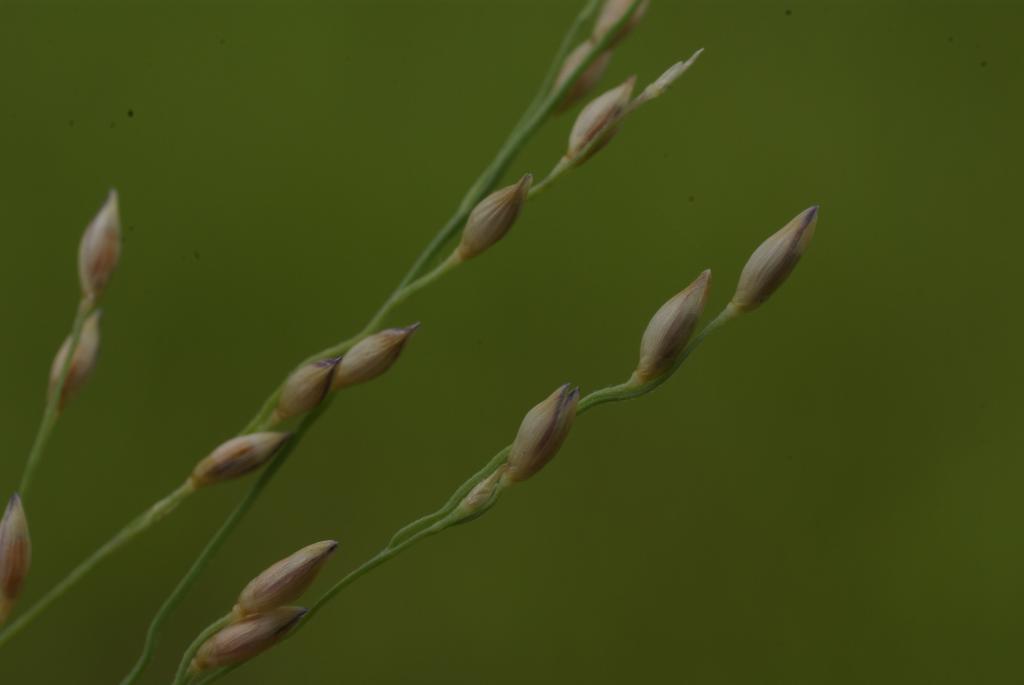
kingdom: Plantae
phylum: Tracheophyta
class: Liliopsida
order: Poales
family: Poaceae
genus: Panicum
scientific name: Panicum repens
